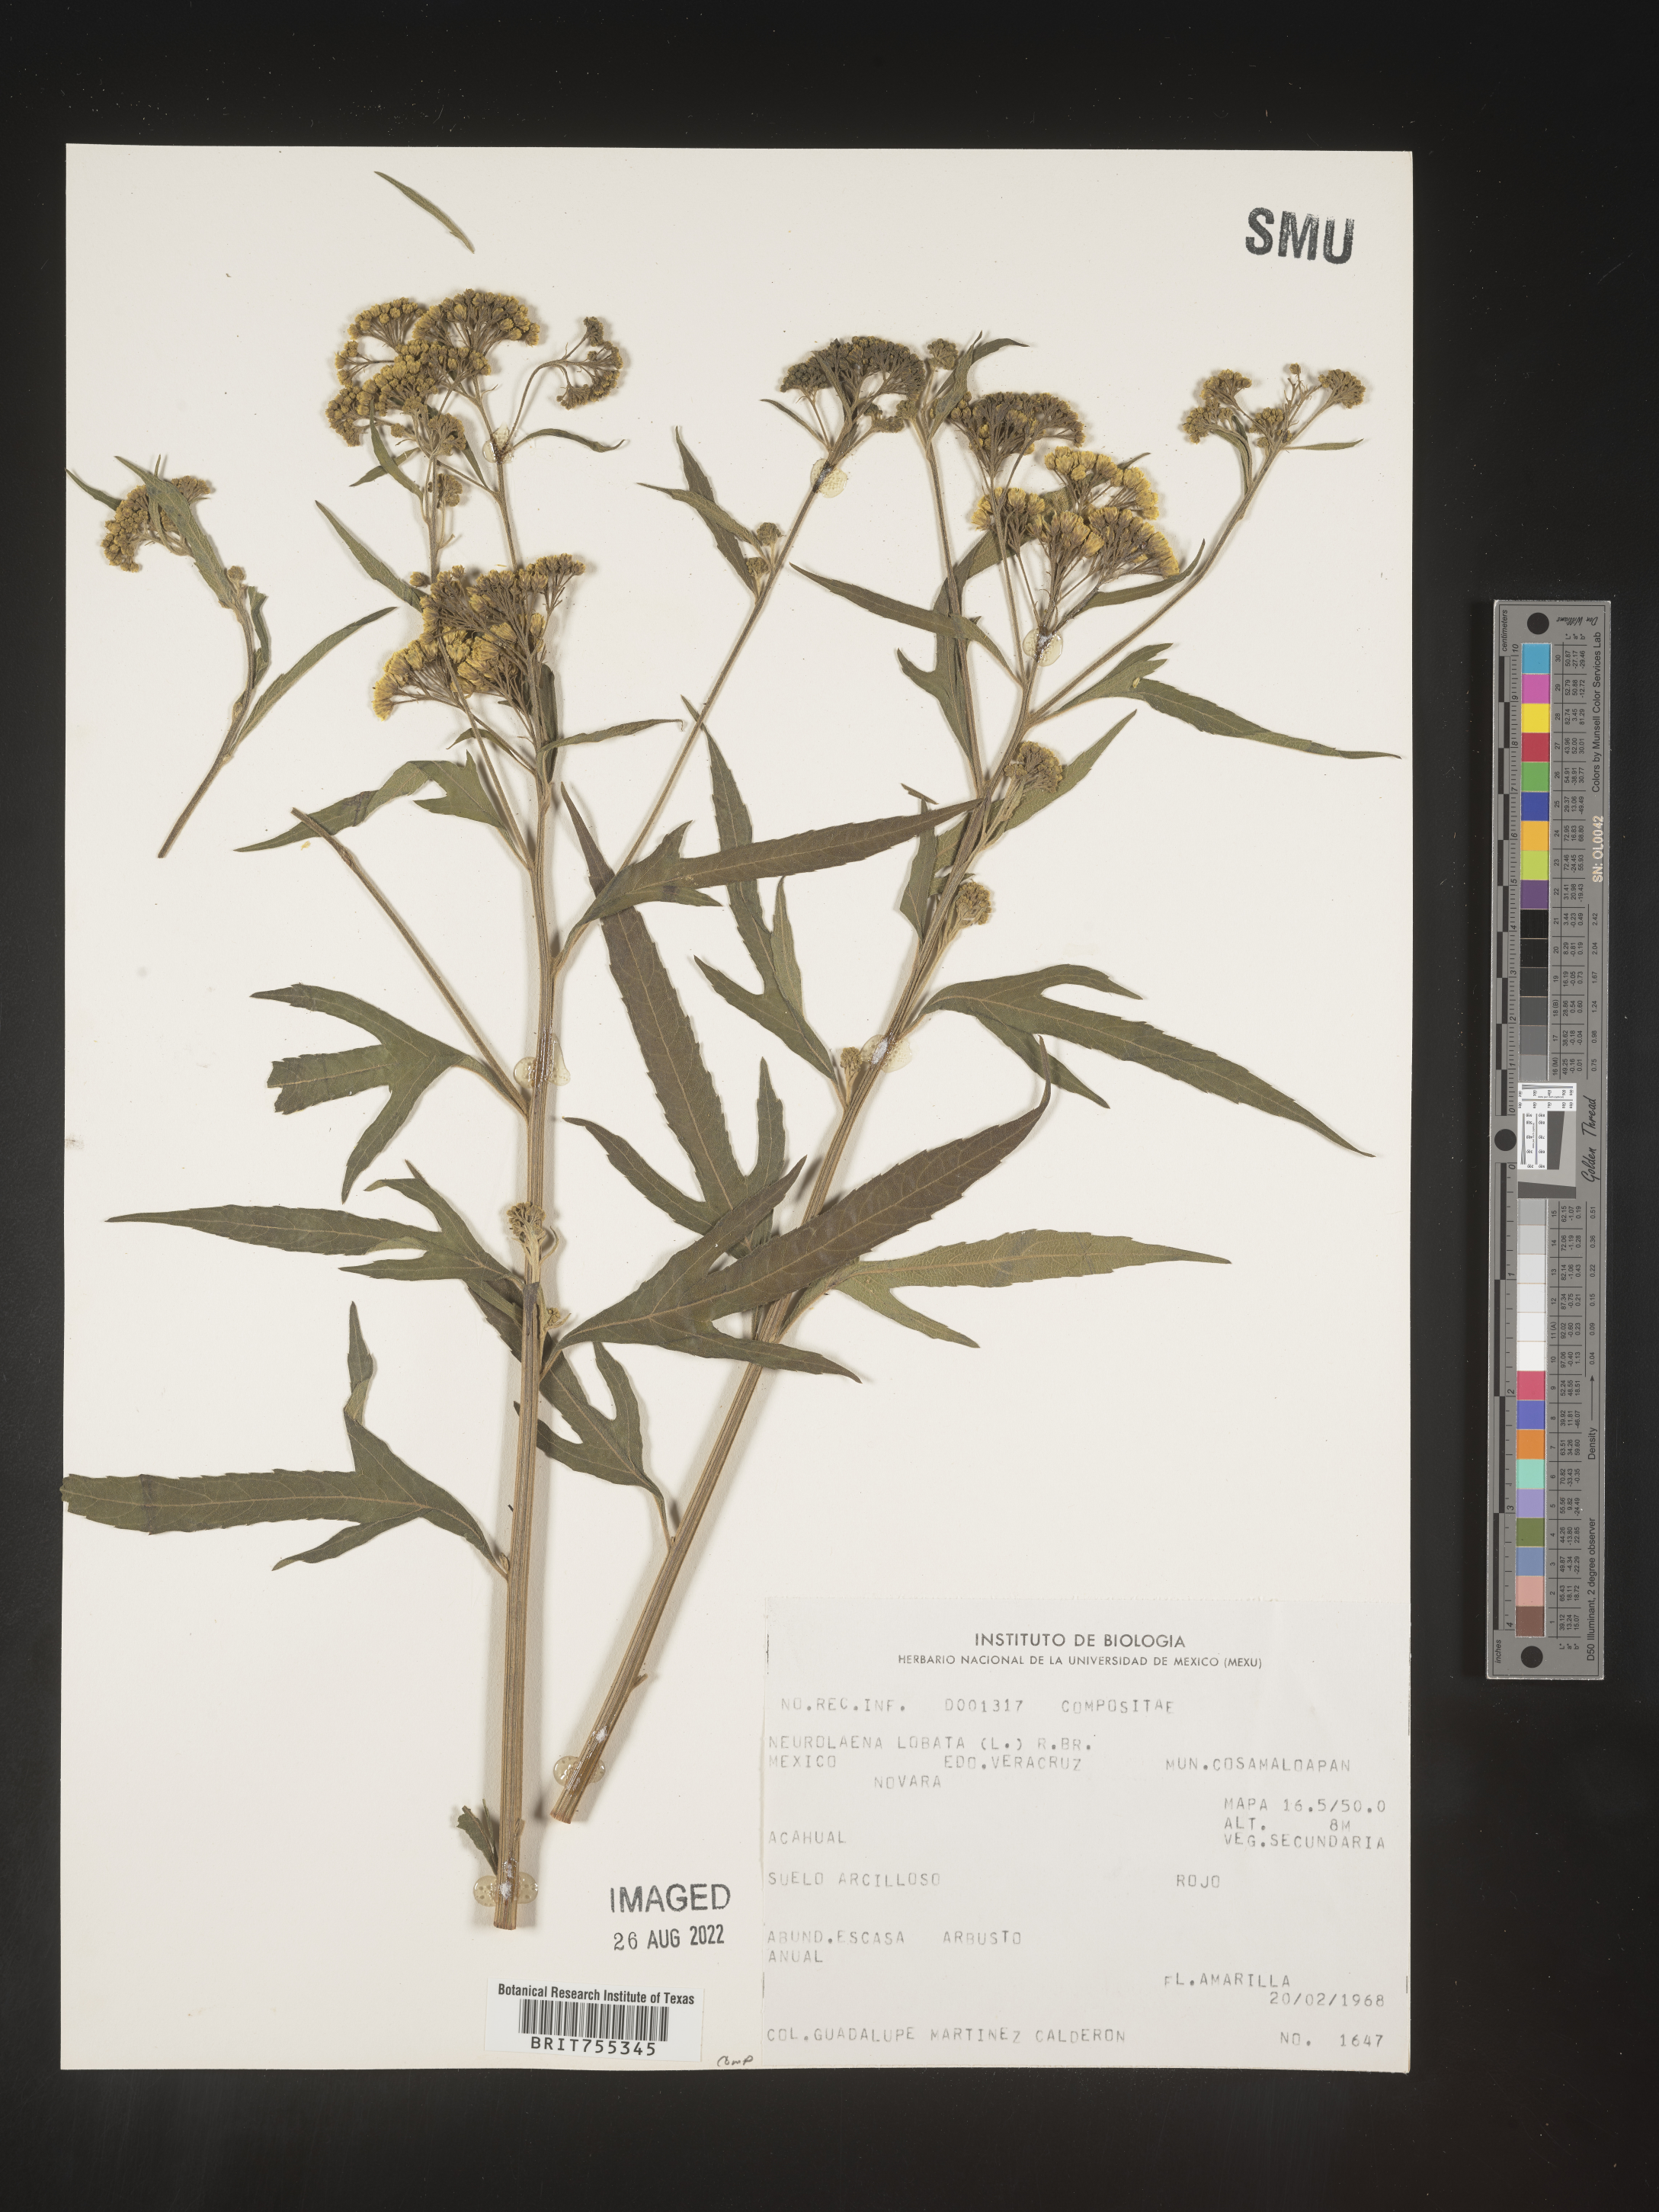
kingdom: Plantae
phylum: Tracheophyta
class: Magnoliopsida
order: Asterales
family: Asteraceae
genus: Neurolaena
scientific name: Neurolaena
